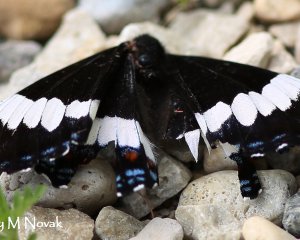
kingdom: Animalia
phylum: Arthropoda
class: Insecta
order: Lepidoptera
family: Nymphalidae
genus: Limenitis
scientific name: Limenitis arthemis
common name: Red-spotted Admiral
